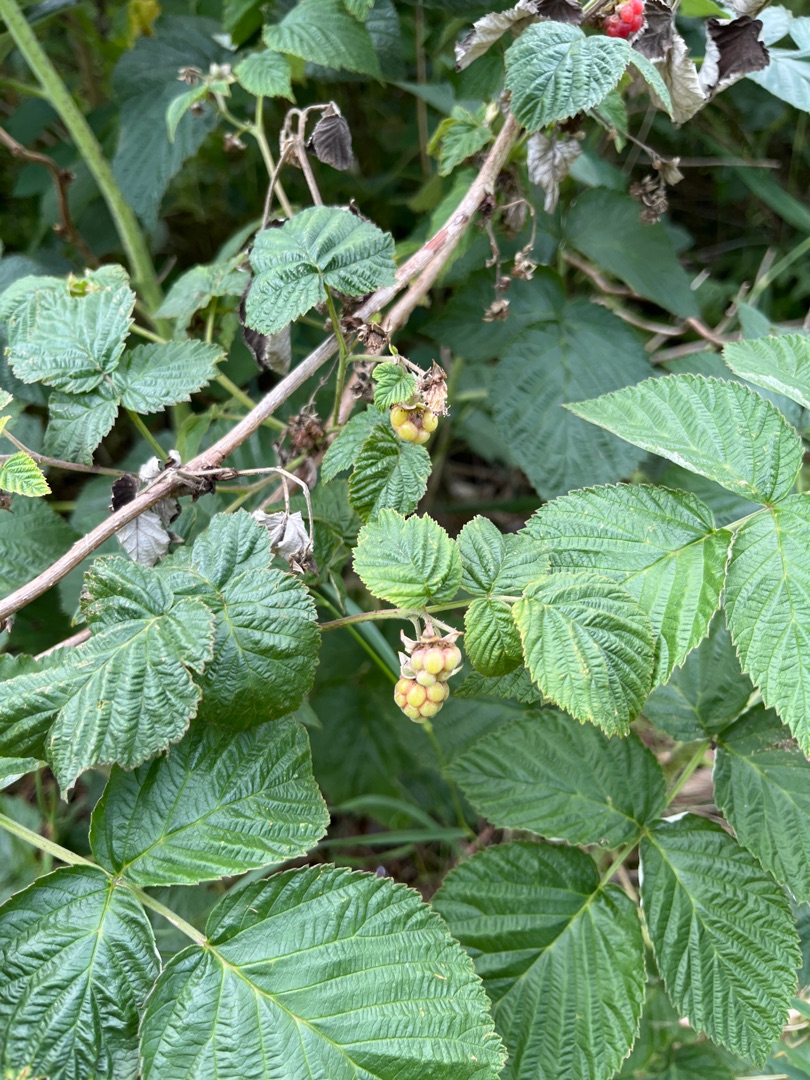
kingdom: Plantae
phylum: Tracheophyta
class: Magnoliopsida
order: Rosales
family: Rosaceae
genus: Rubus
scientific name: Rubus idaeus
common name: Hindbær
